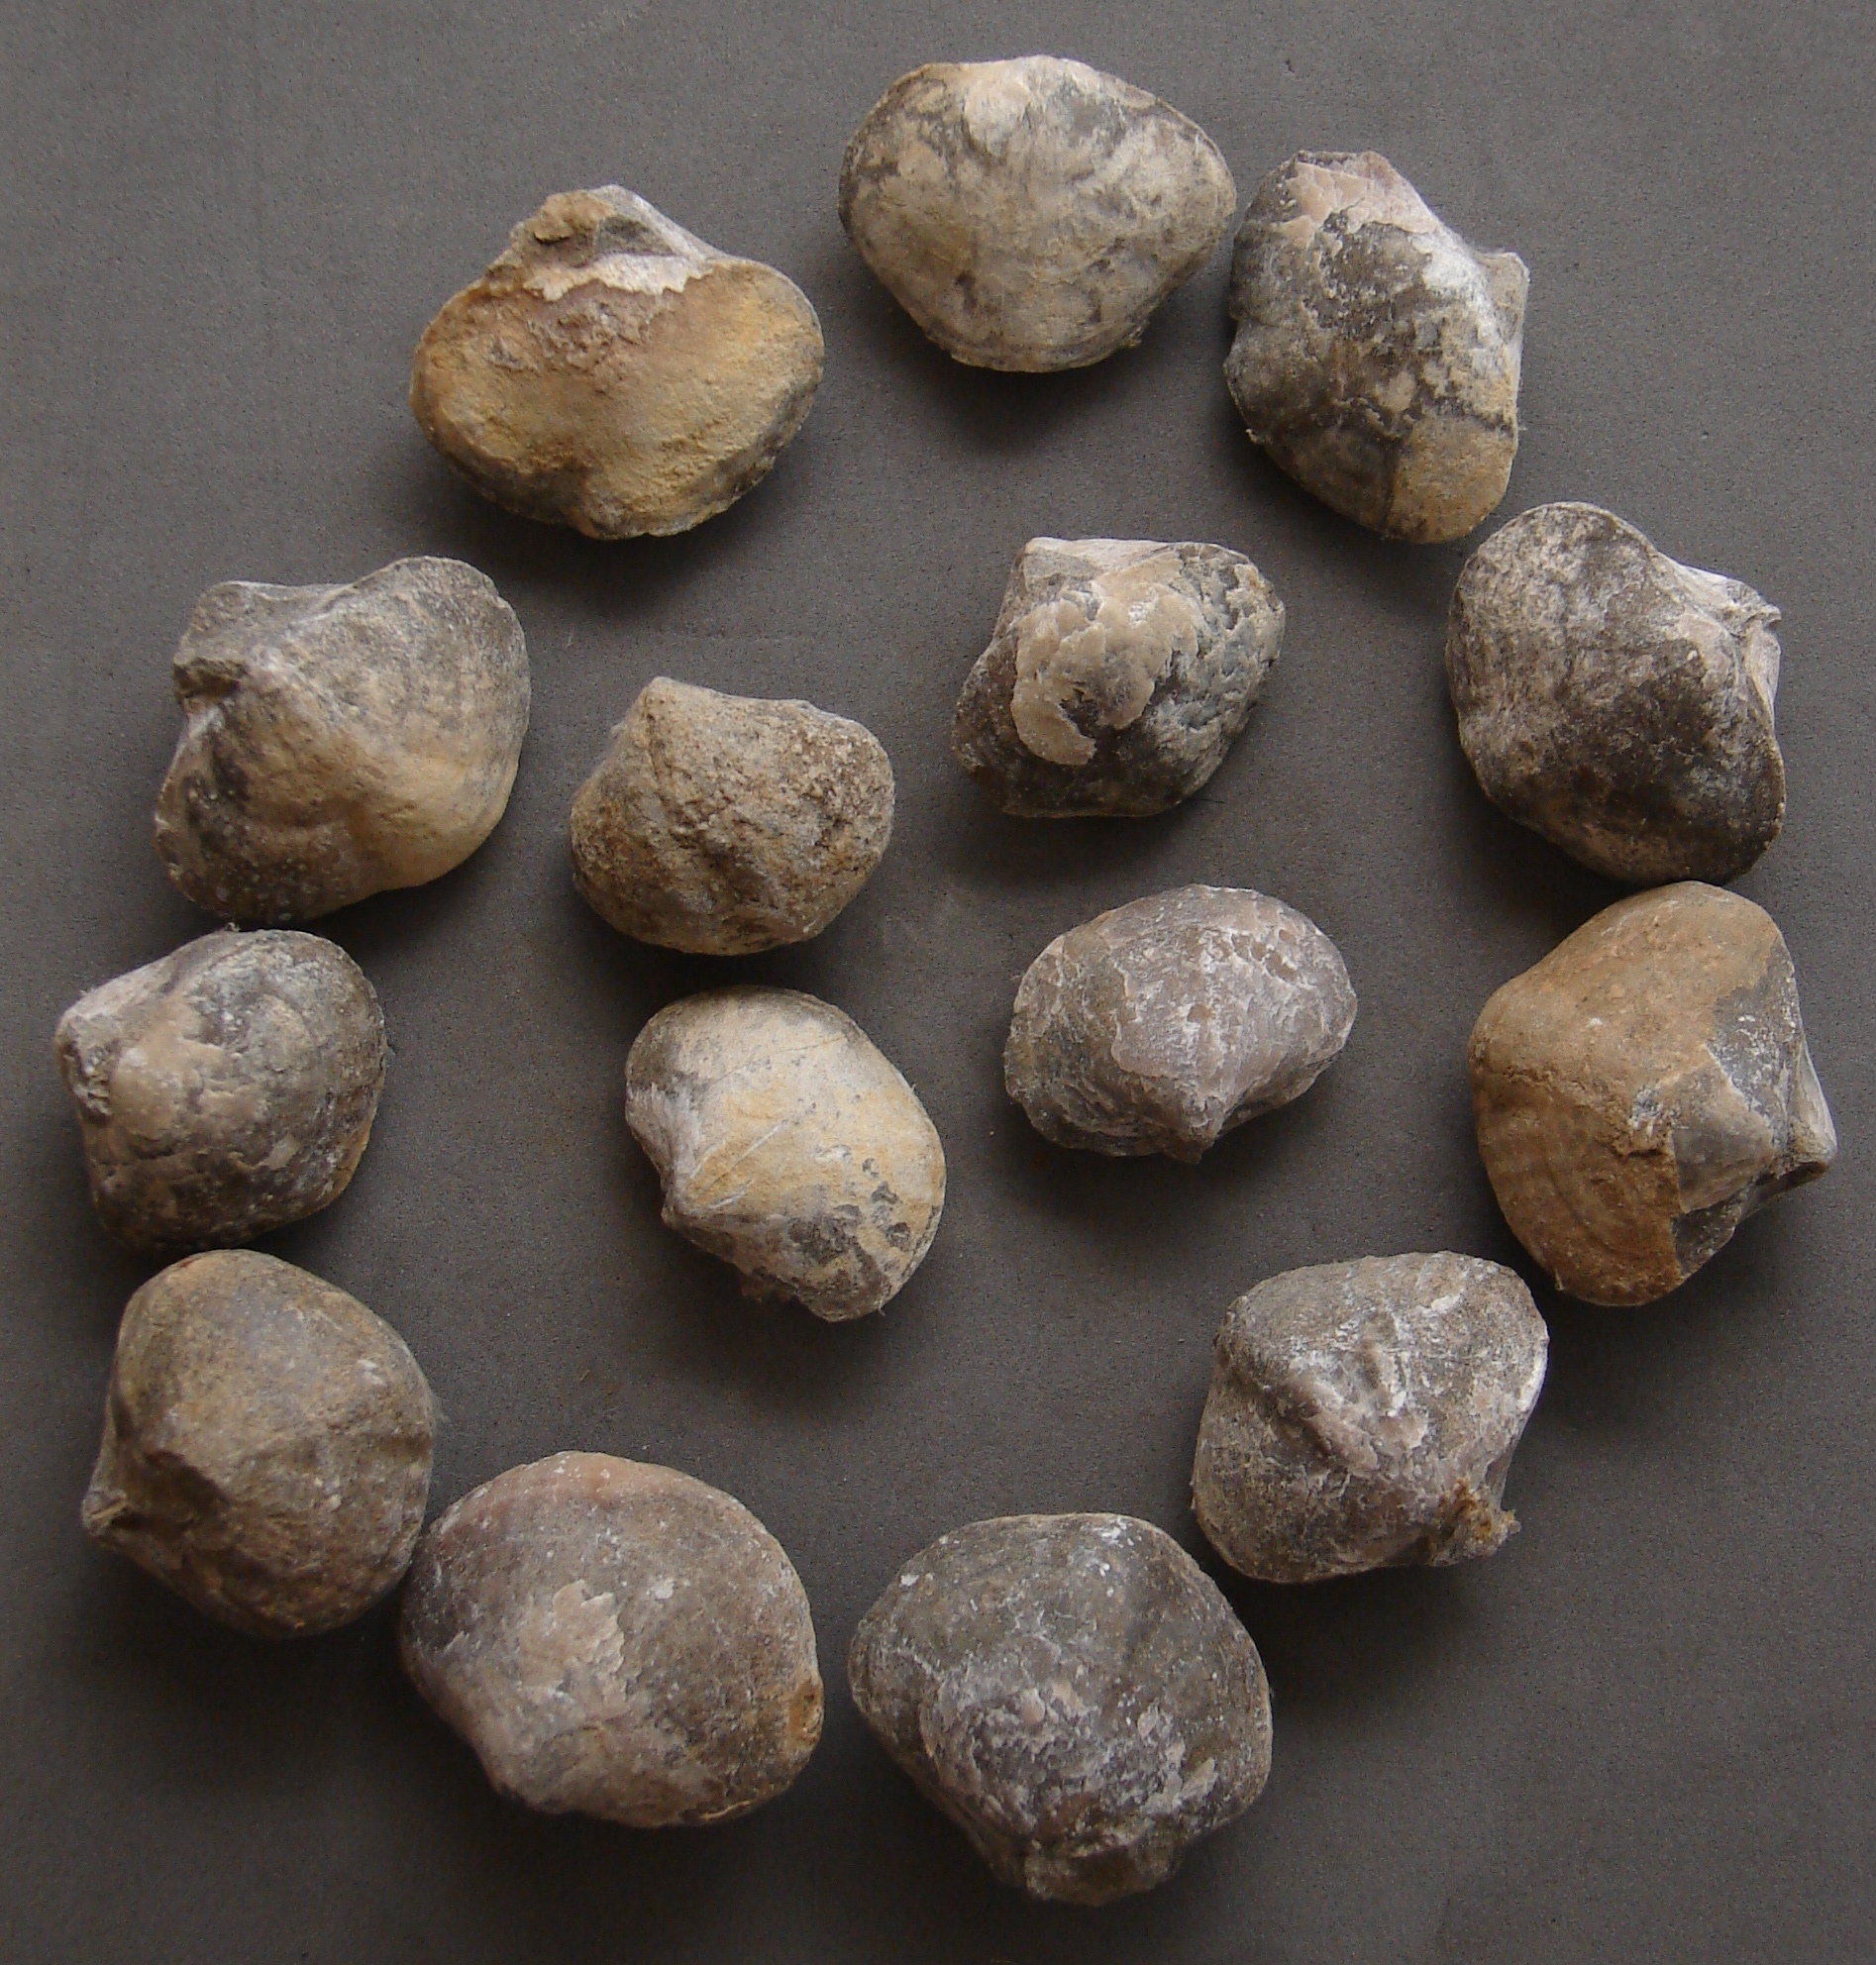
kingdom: Animalia
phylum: Brachiopoda
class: Rhynchonellata
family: Spiriferinidae
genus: Spiriferina
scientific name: Spiriferina
